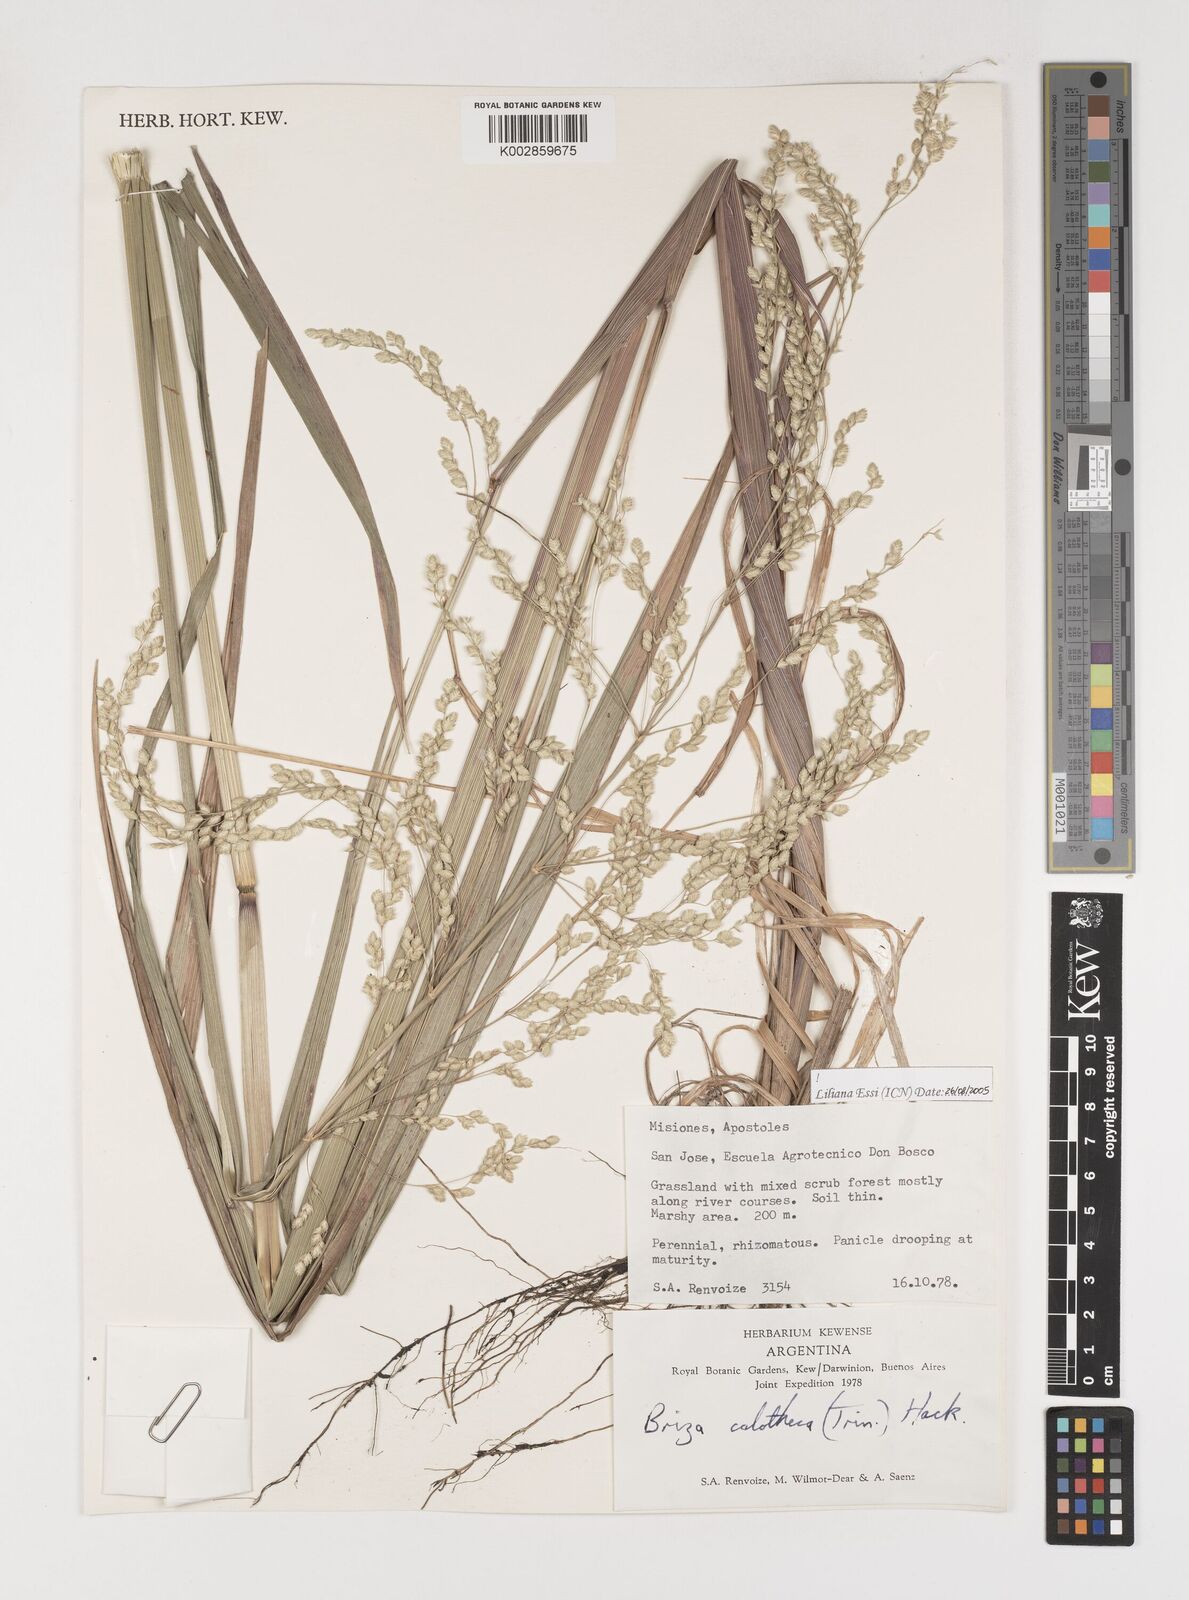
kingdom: Plantae
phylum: Tracheophyta
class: Liliopsida
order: Poales
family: Poaceae
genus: Poidium
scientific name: Poidium calotheca
